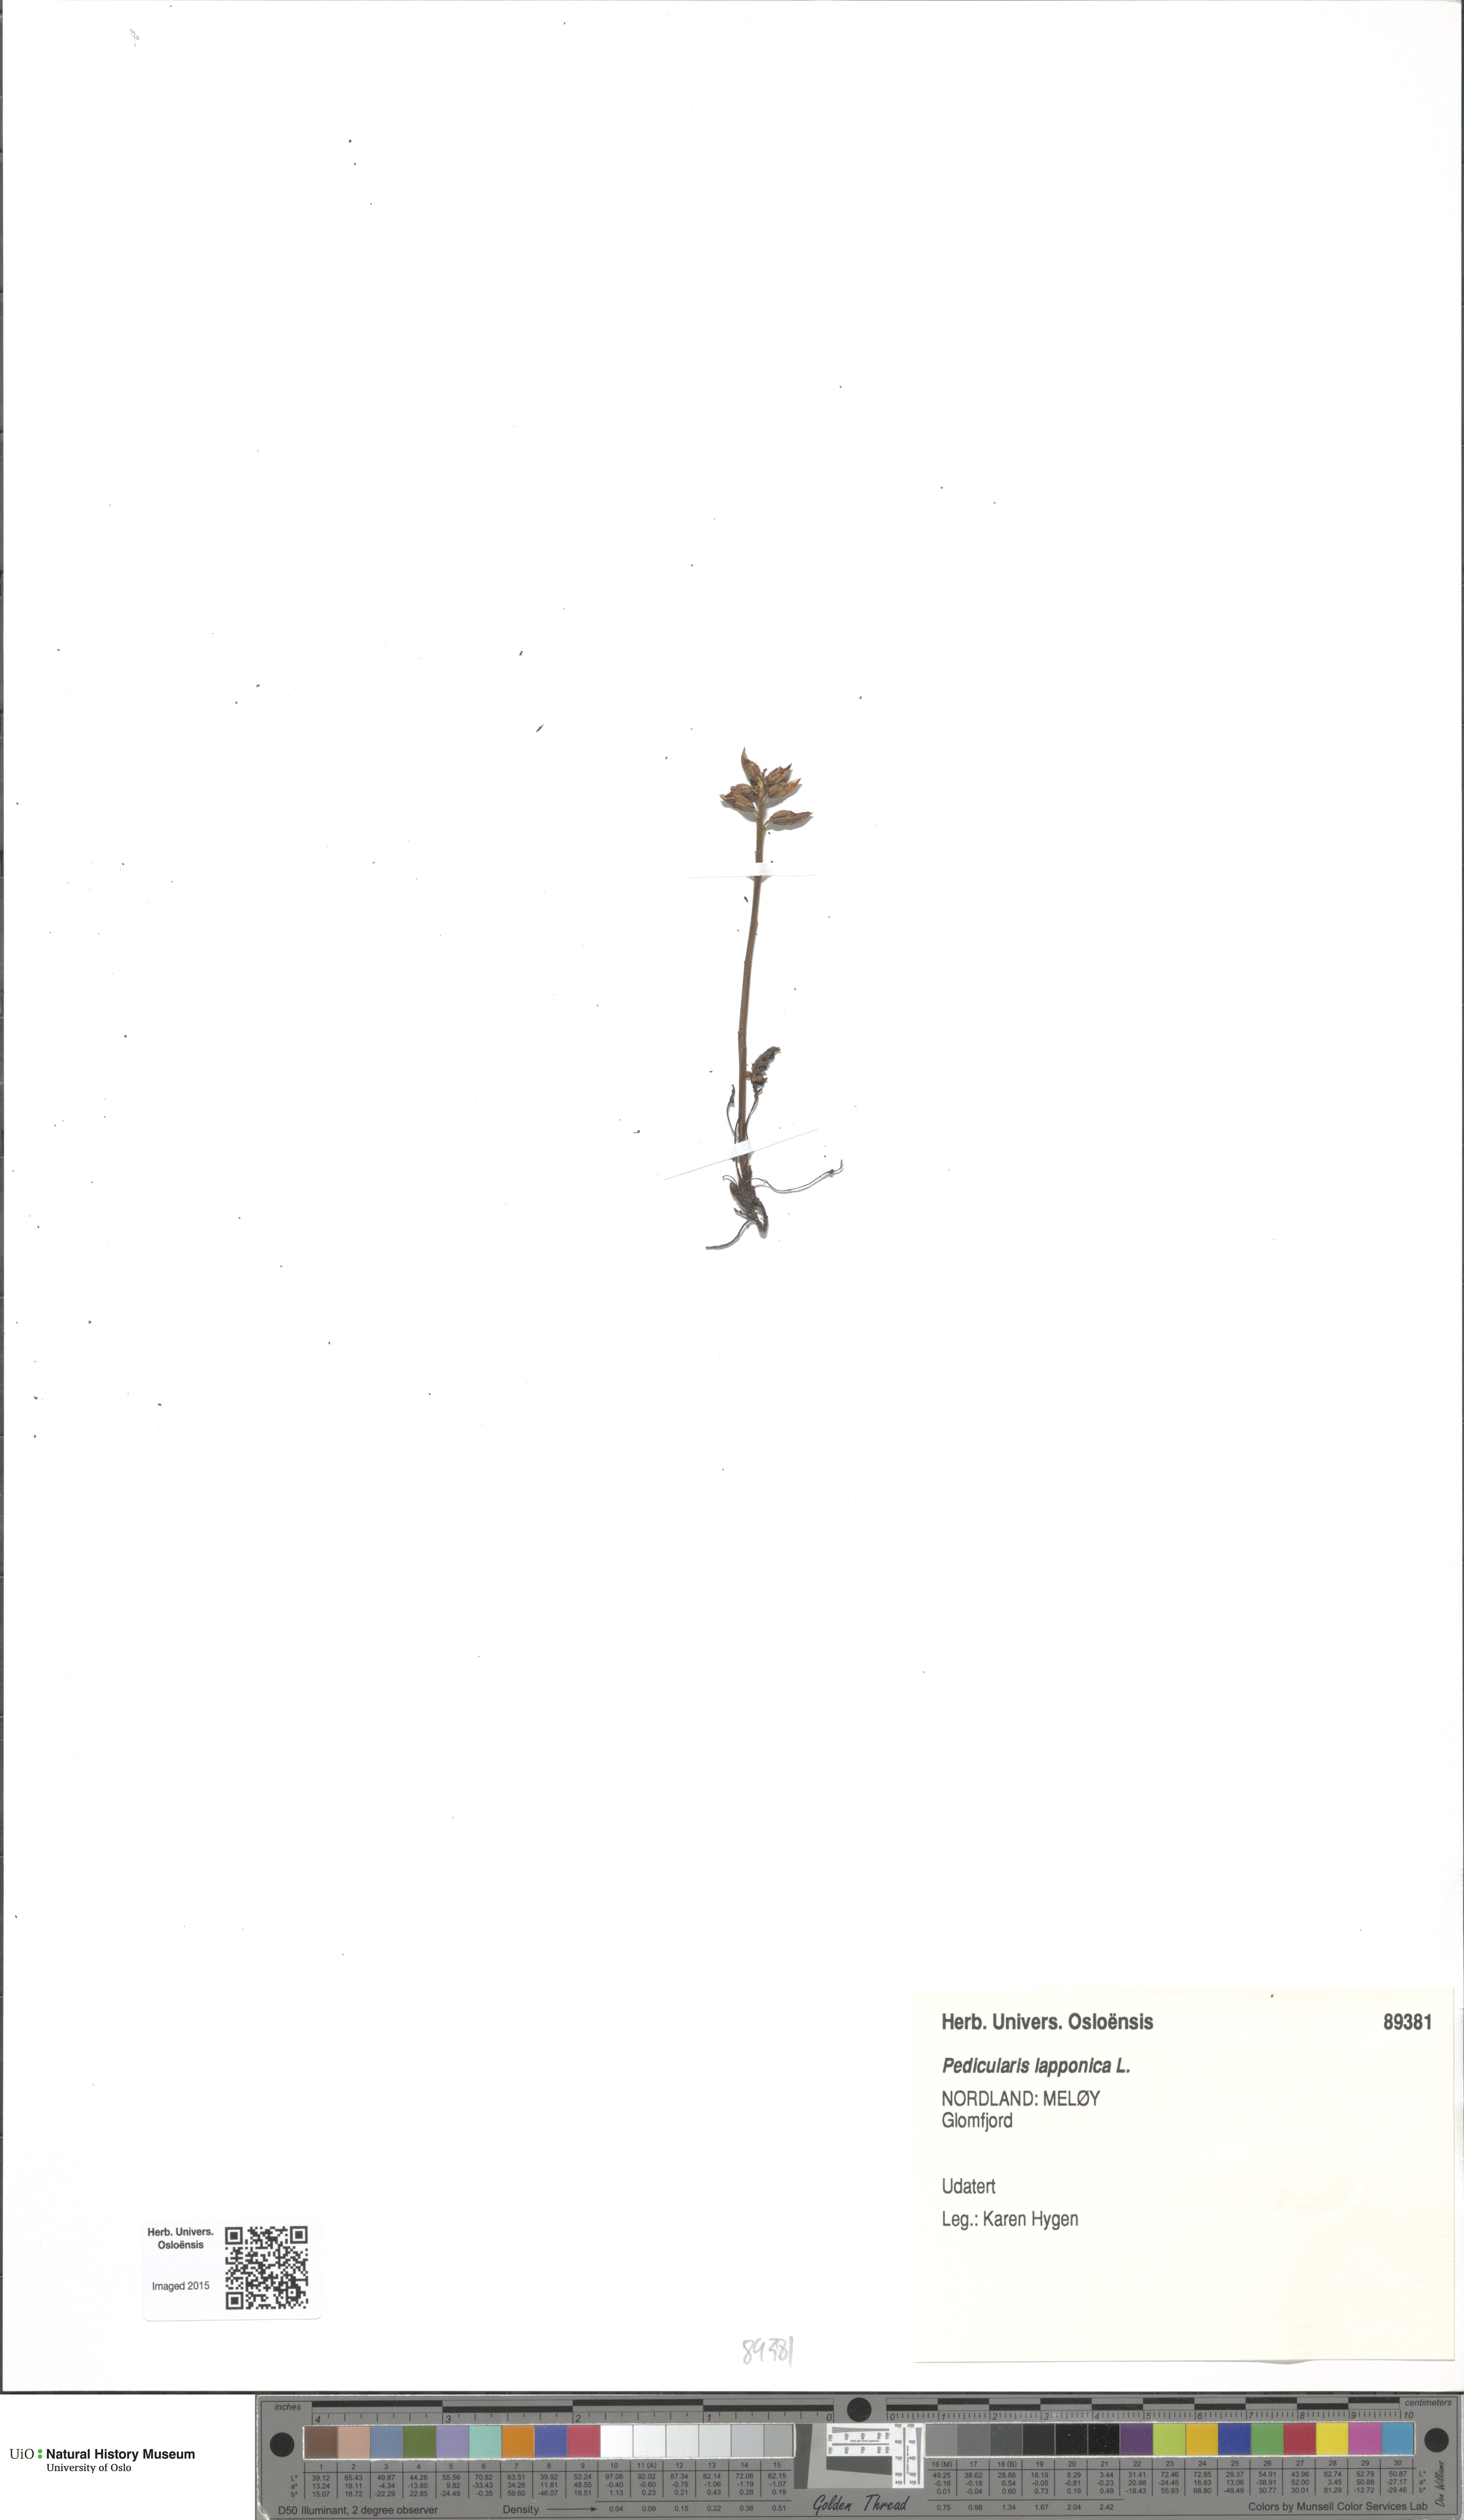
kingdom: Plantae
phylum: Tracheophyta
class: Magnoliopsida
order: Lamiales
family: Orobanchaceae
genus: Pedicularis
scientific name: Pedicularis lapponica
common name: Lapland lousewort
